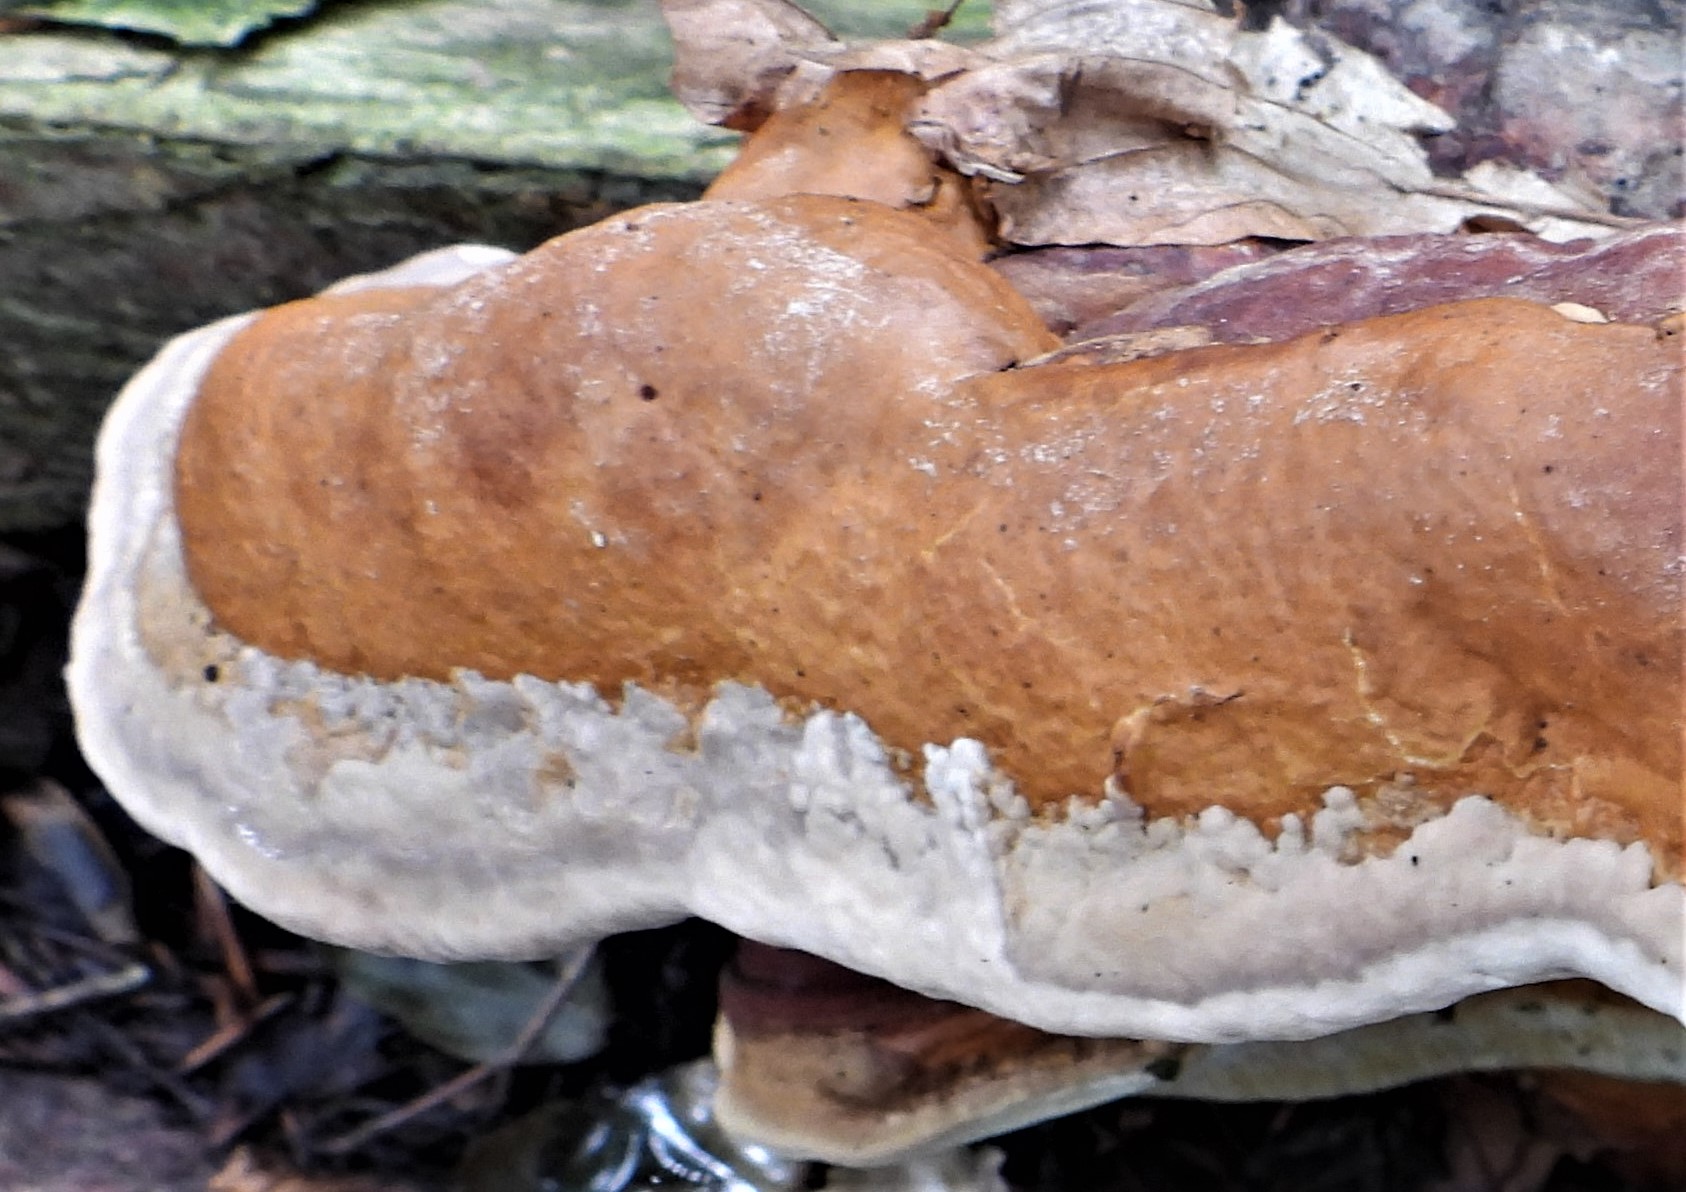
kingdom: Fungi
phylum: Basidiomycota
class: Agaricomycetes
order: Polyporales
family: Fomitopsidaceae
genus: Fomitopsis
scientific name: Fomitopsis pinicola
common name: randbæltet hovporesvamp
